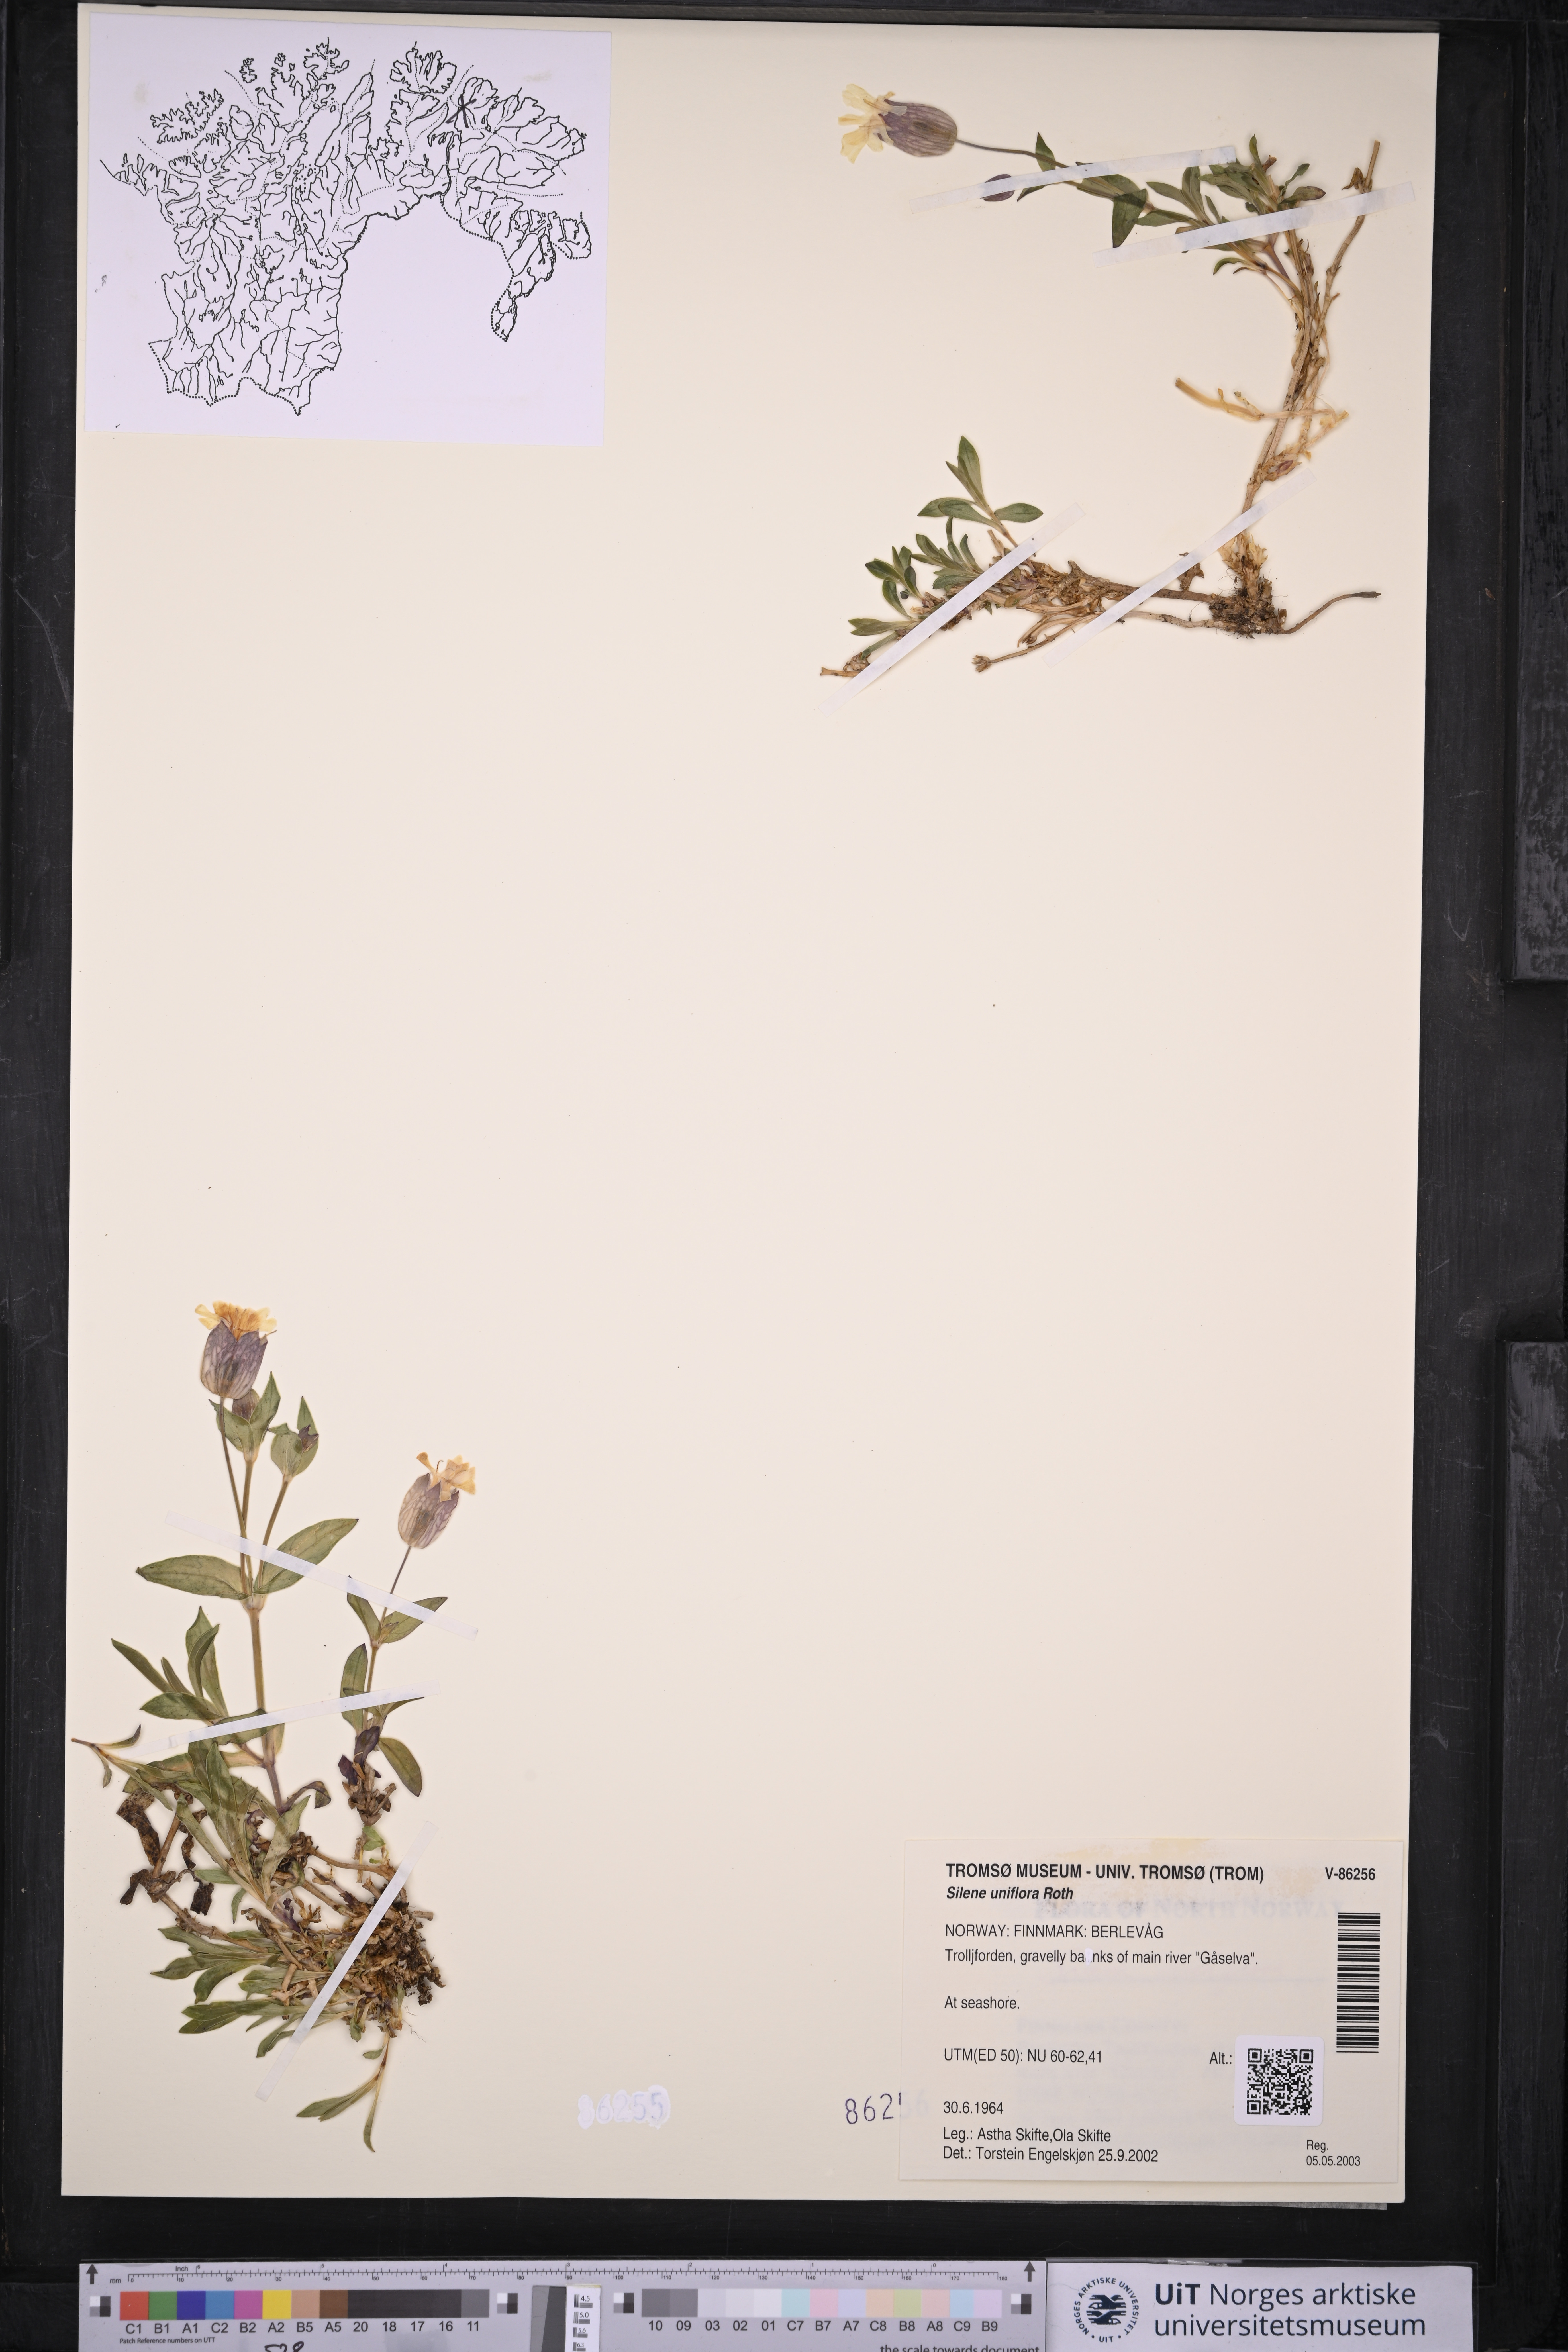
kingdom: Plantae
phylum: Tracheophyta
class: Magnoliopsida
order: Caryophyllales
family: Caryophyllaceae
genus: Silene
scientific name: Silene uniflora
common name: Sea campion
